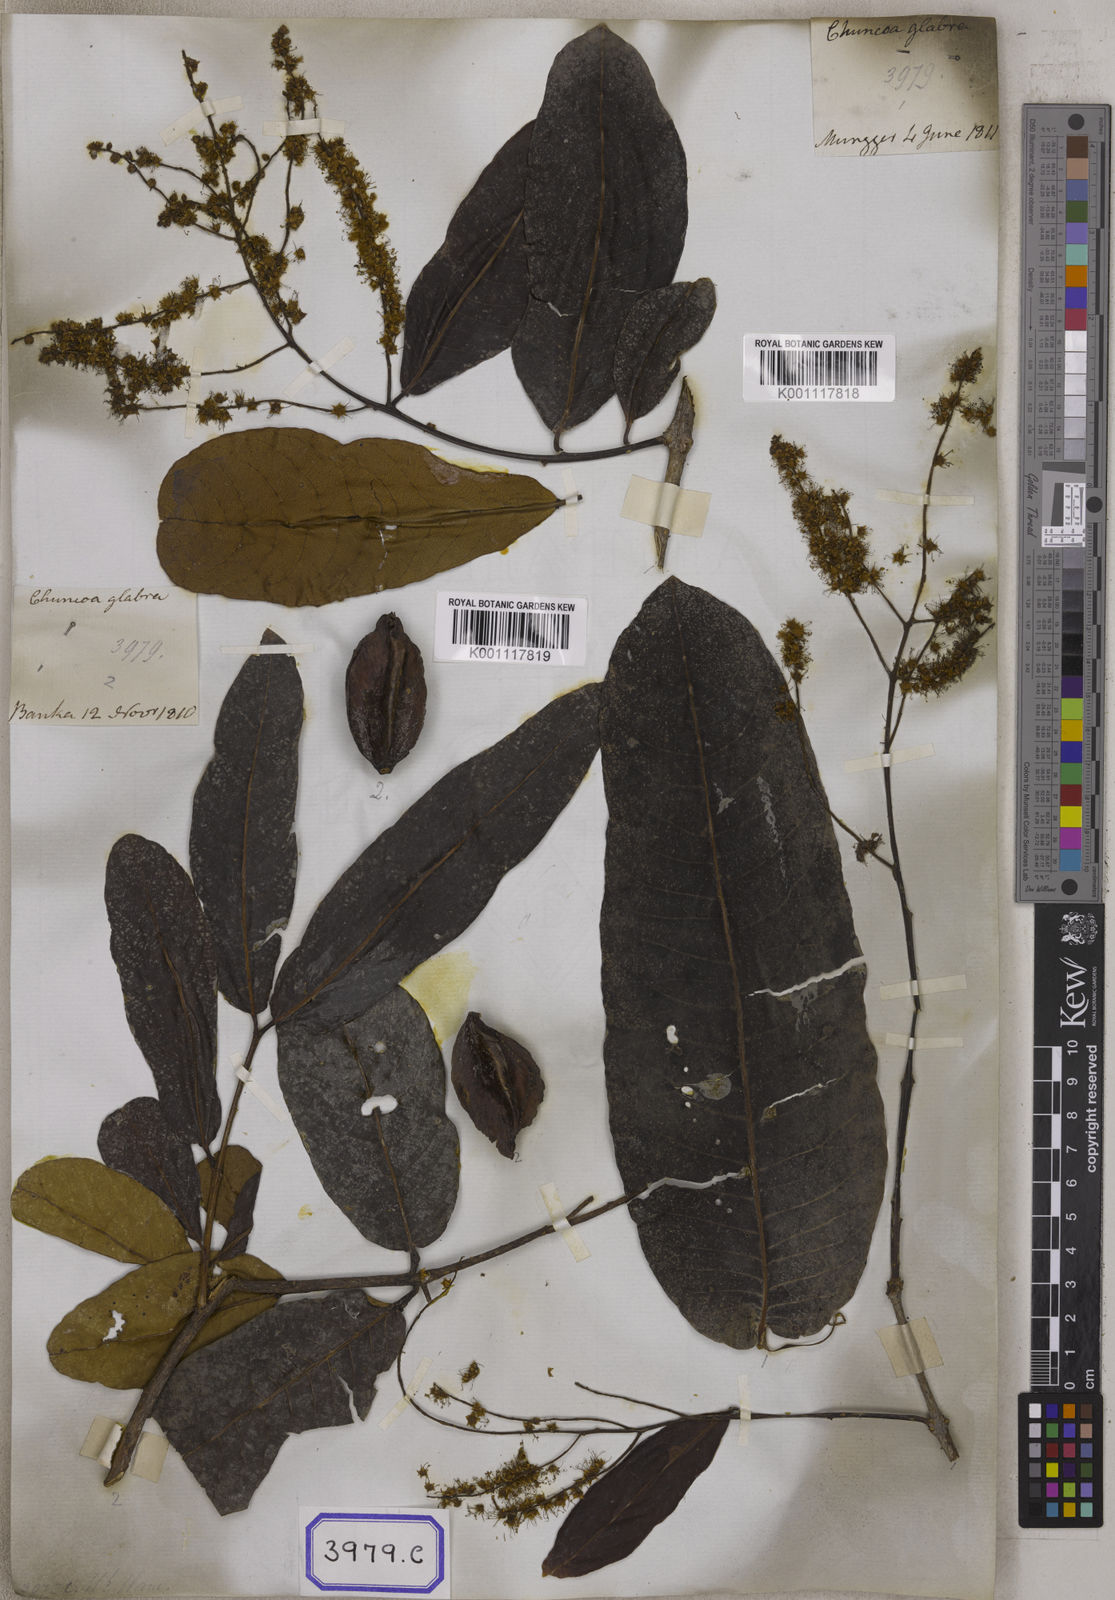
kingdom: Plantae
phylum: Tracheophyta
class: Magnoliopsida
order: Myrtales
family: Combretaceae
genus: Terminalia
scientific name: Terminalia arjuna
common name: Arjun
